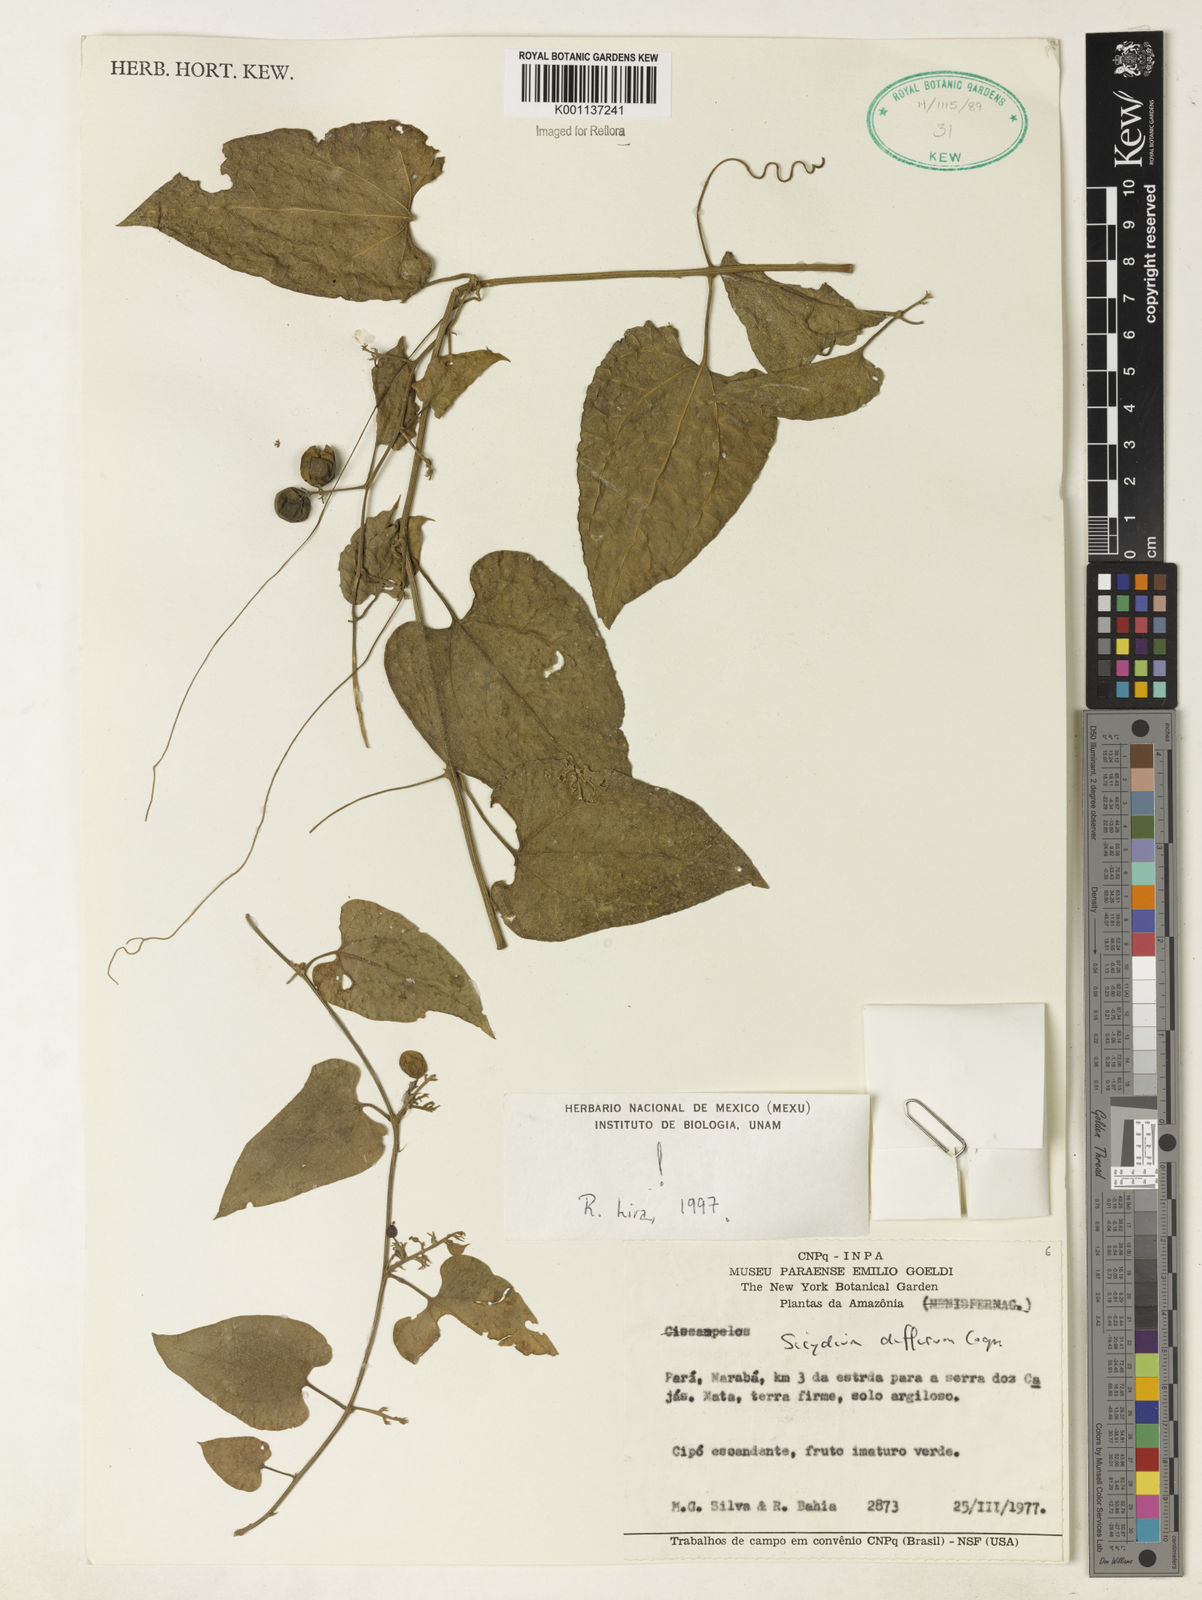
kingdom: Plantae
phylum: Tracheophyta
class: Magnoliopsida
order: Cucurbitales
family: Cucurbitaceae
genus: Sicydium
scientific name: Sicydium diffusum
